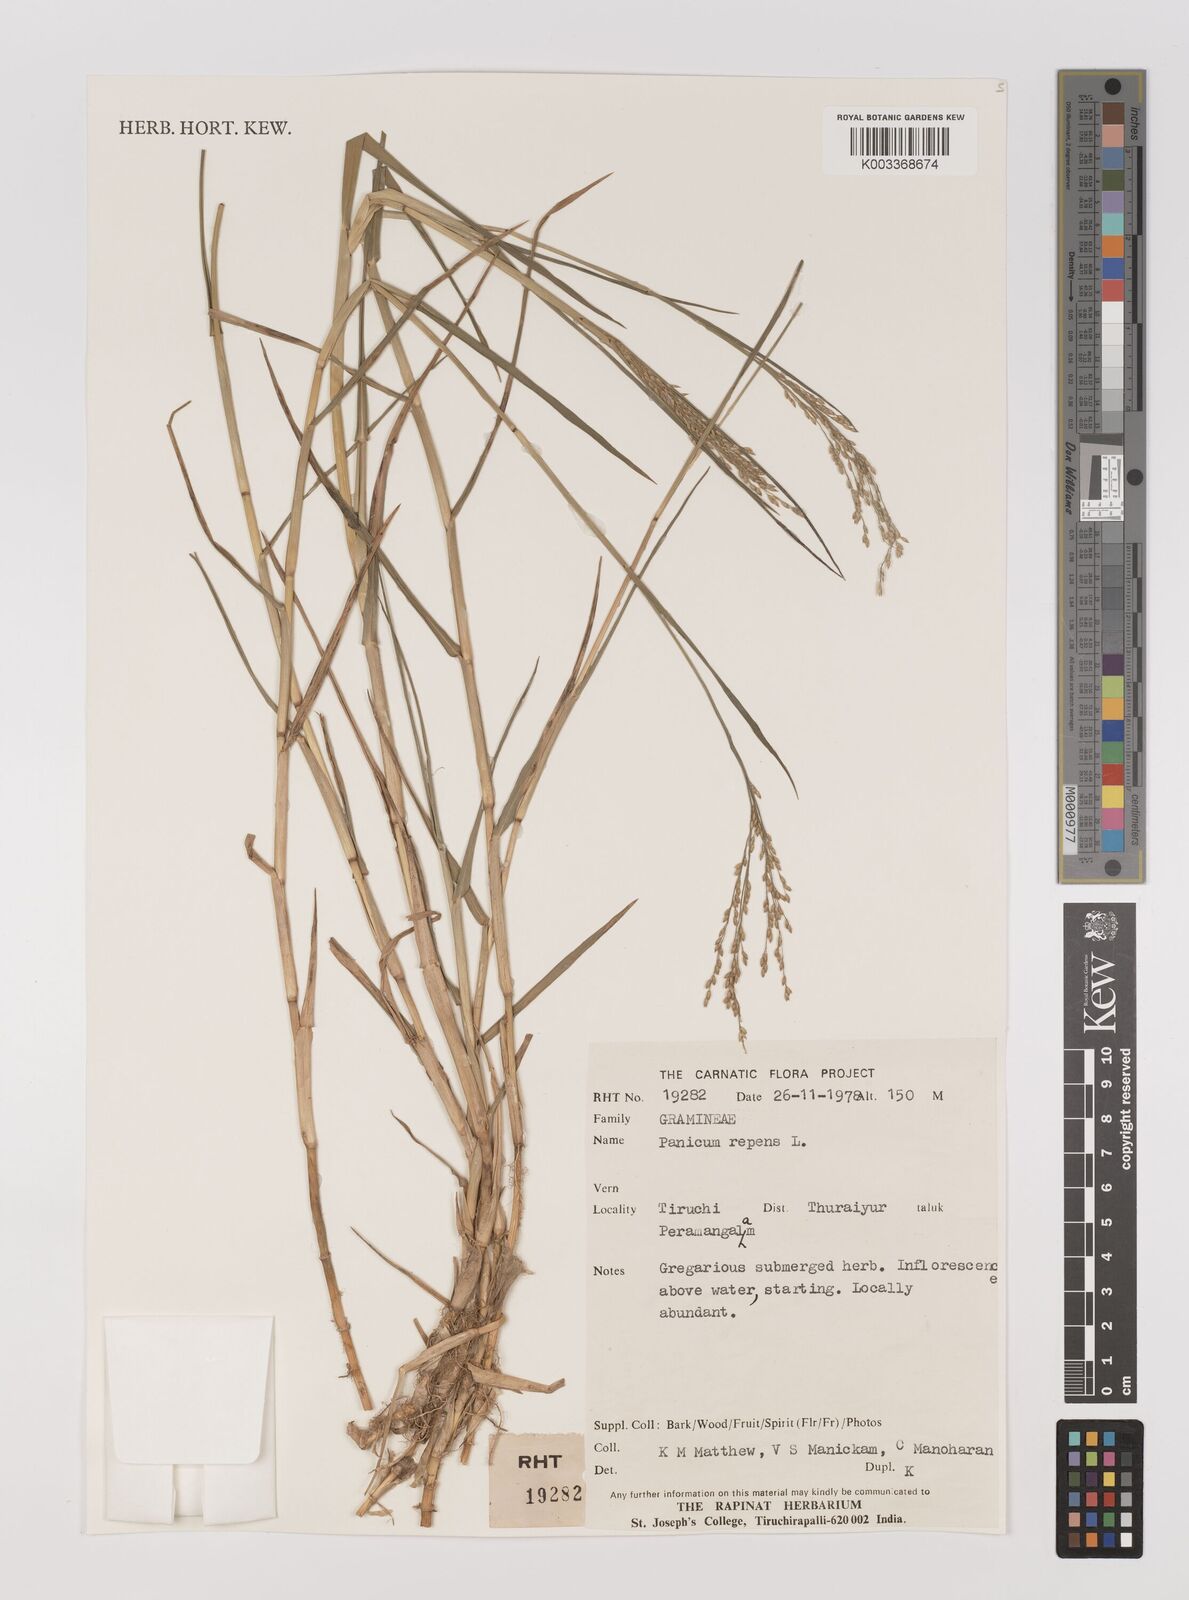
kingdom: Plantae
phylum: Tracheophyta
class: Liliopsida
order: Poales
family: Poaceae
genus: Panicum
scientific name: Panicum repens
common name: Torpedo grass
